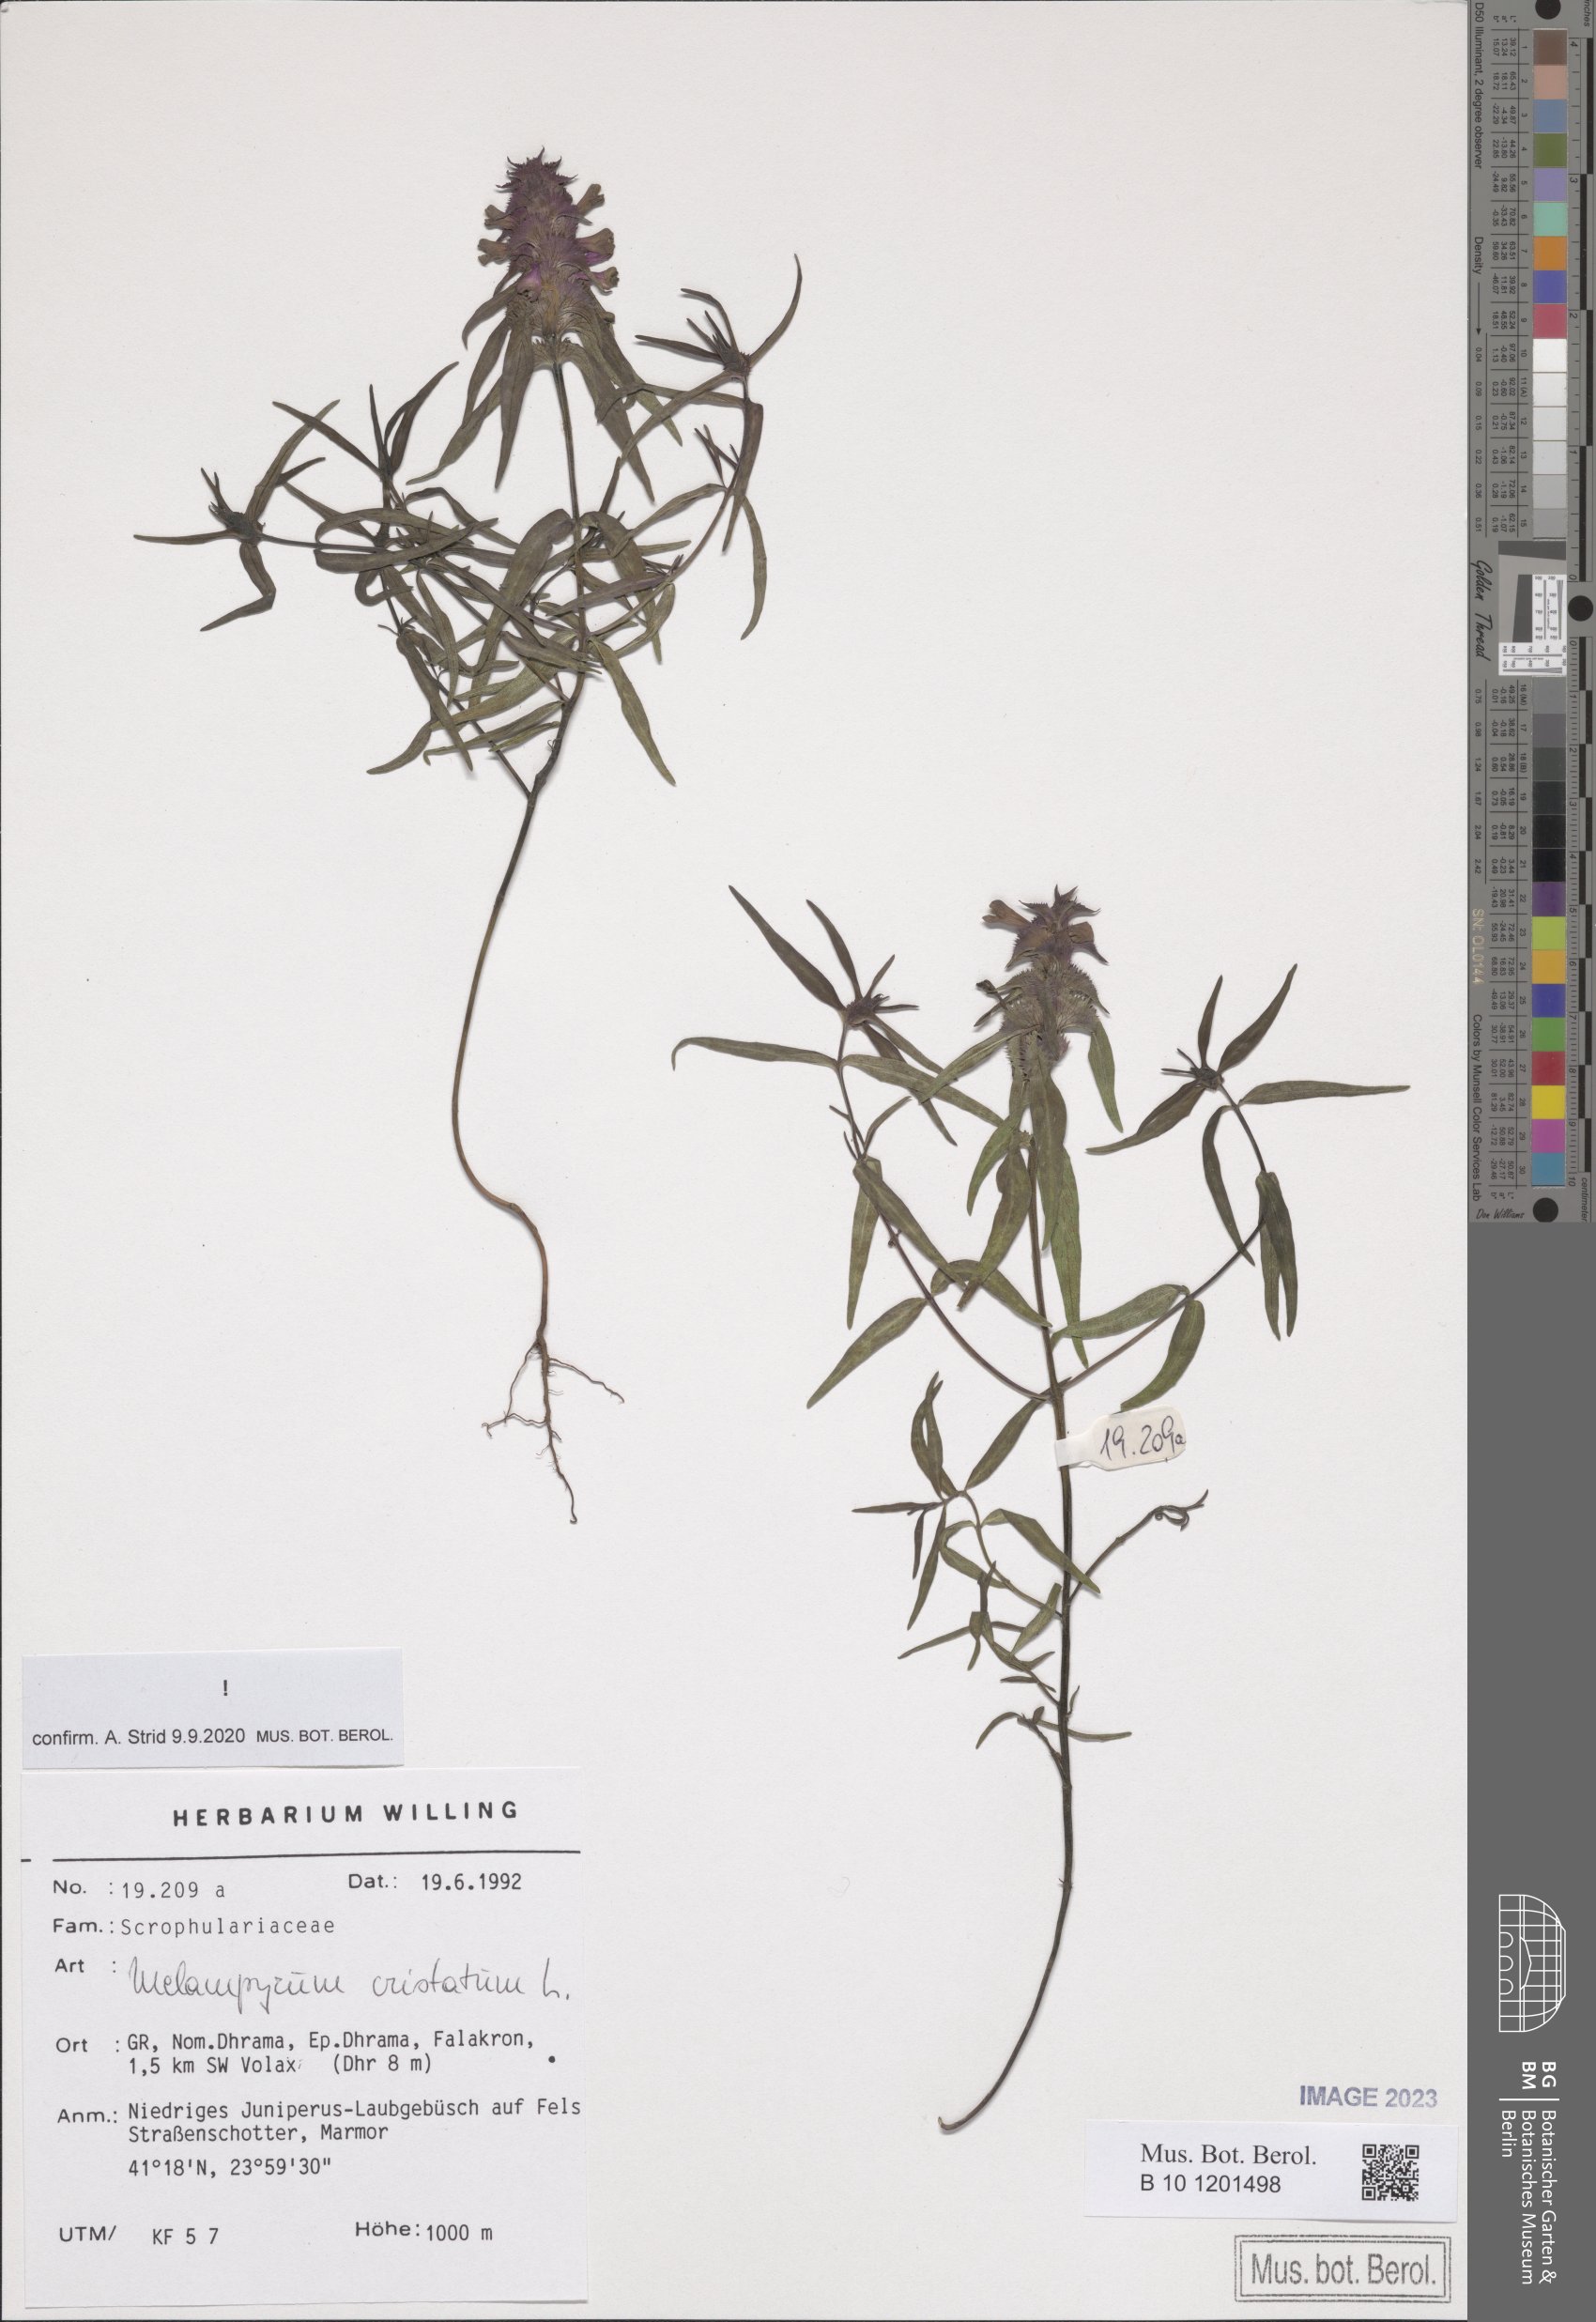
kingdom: Plantae
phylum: Tracheophyta
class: Magnoliopsida
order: Lamiales
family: Orobanchaceae
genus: Melampyrum
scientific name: Melampyrum cristatum
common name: Crested cow-wheat
